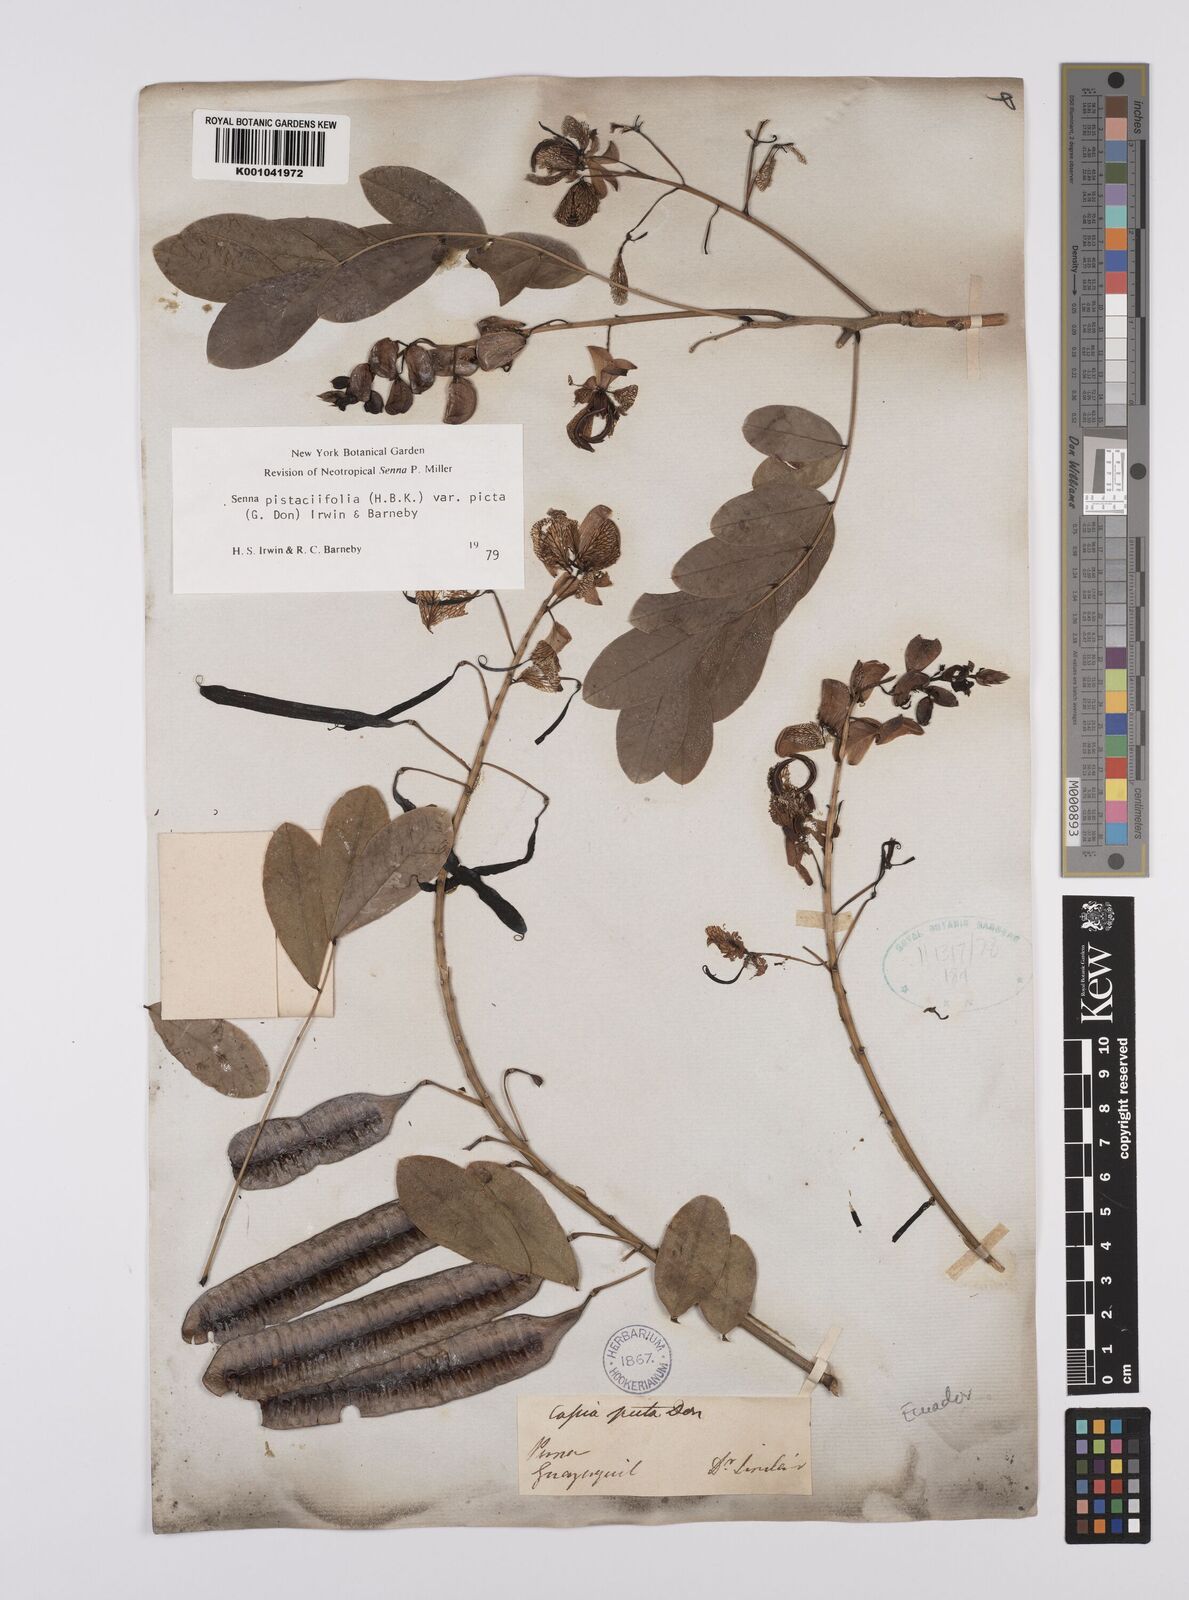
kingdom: Plantae
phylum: Tracheophyta
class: Magnoliopsida
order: Fabales
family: Fabaceae
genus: Senna
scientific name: Senna pistaciifolia
